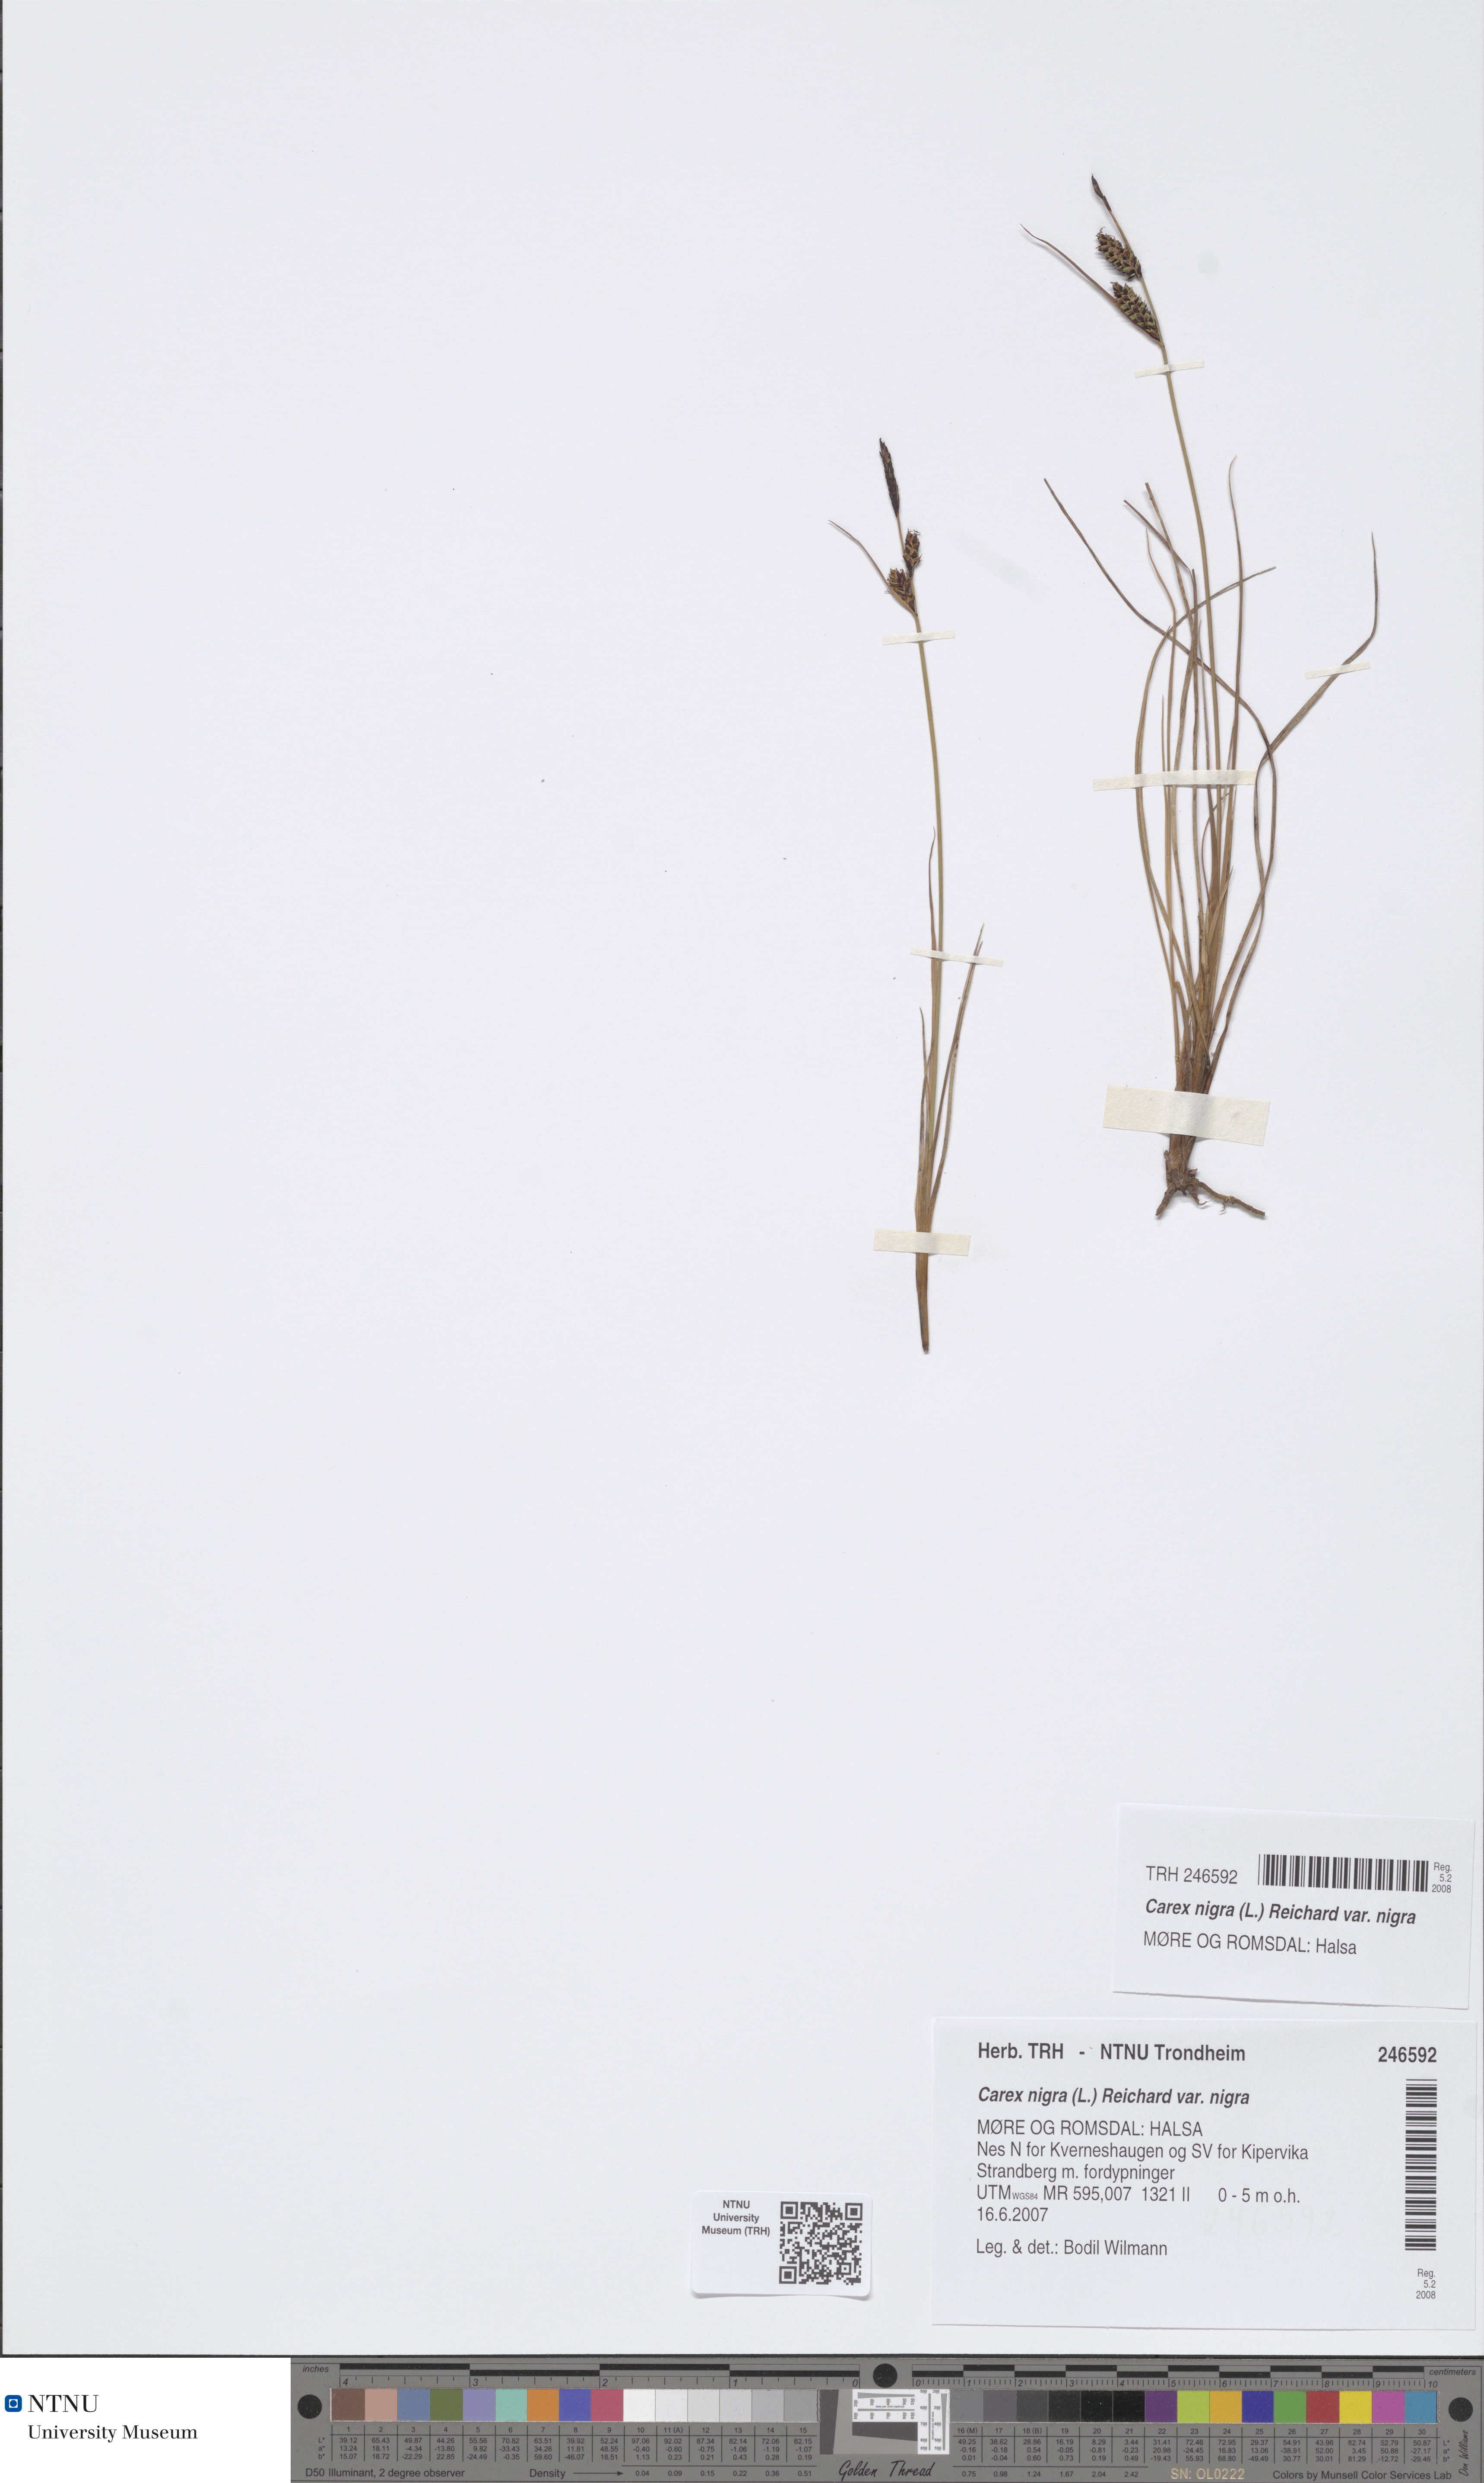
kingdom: Plantae
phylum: Tracheophyta
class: Liliopsida
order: Poales
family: Cyperaceae
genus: Carex
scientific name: Carex nigra
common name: Common sedge
